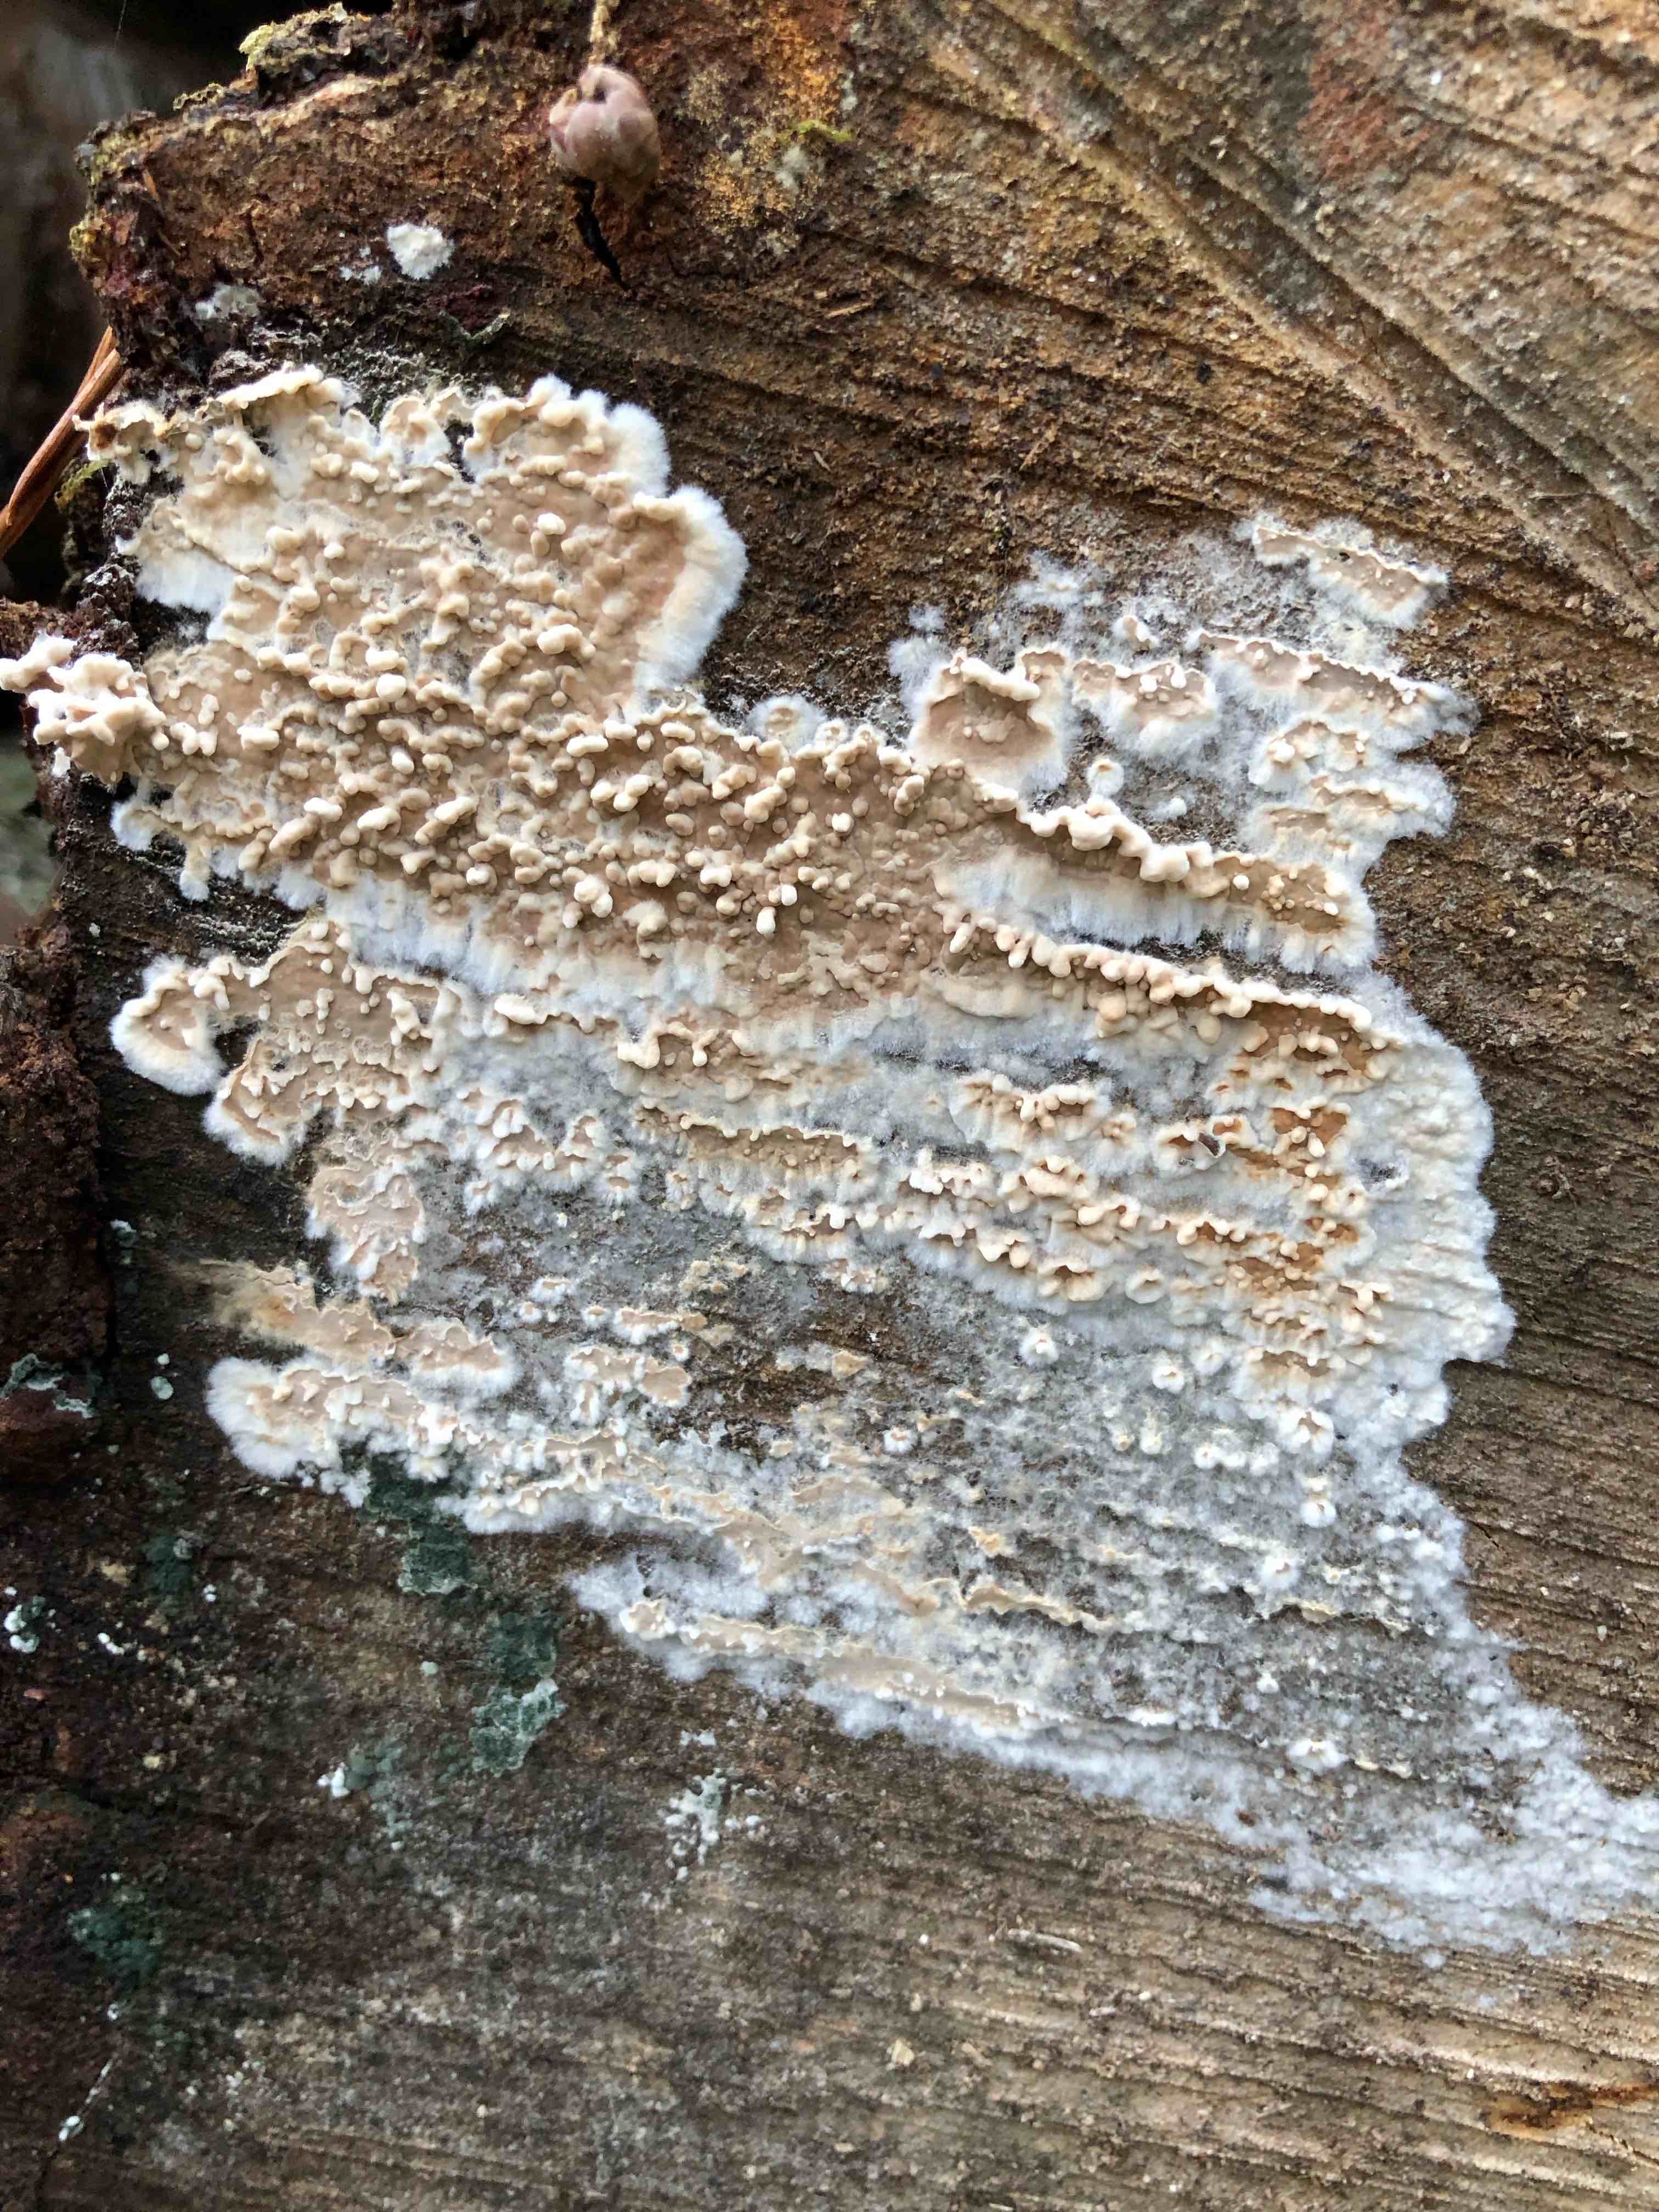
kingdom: Fungi
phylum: Basidiomycota
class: Agaricomycetes
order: Agaricales
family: Physalacriaceae
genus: Cylindrobasidium
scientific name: Cylindrobasidium evolvens
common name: sprækkehinde
